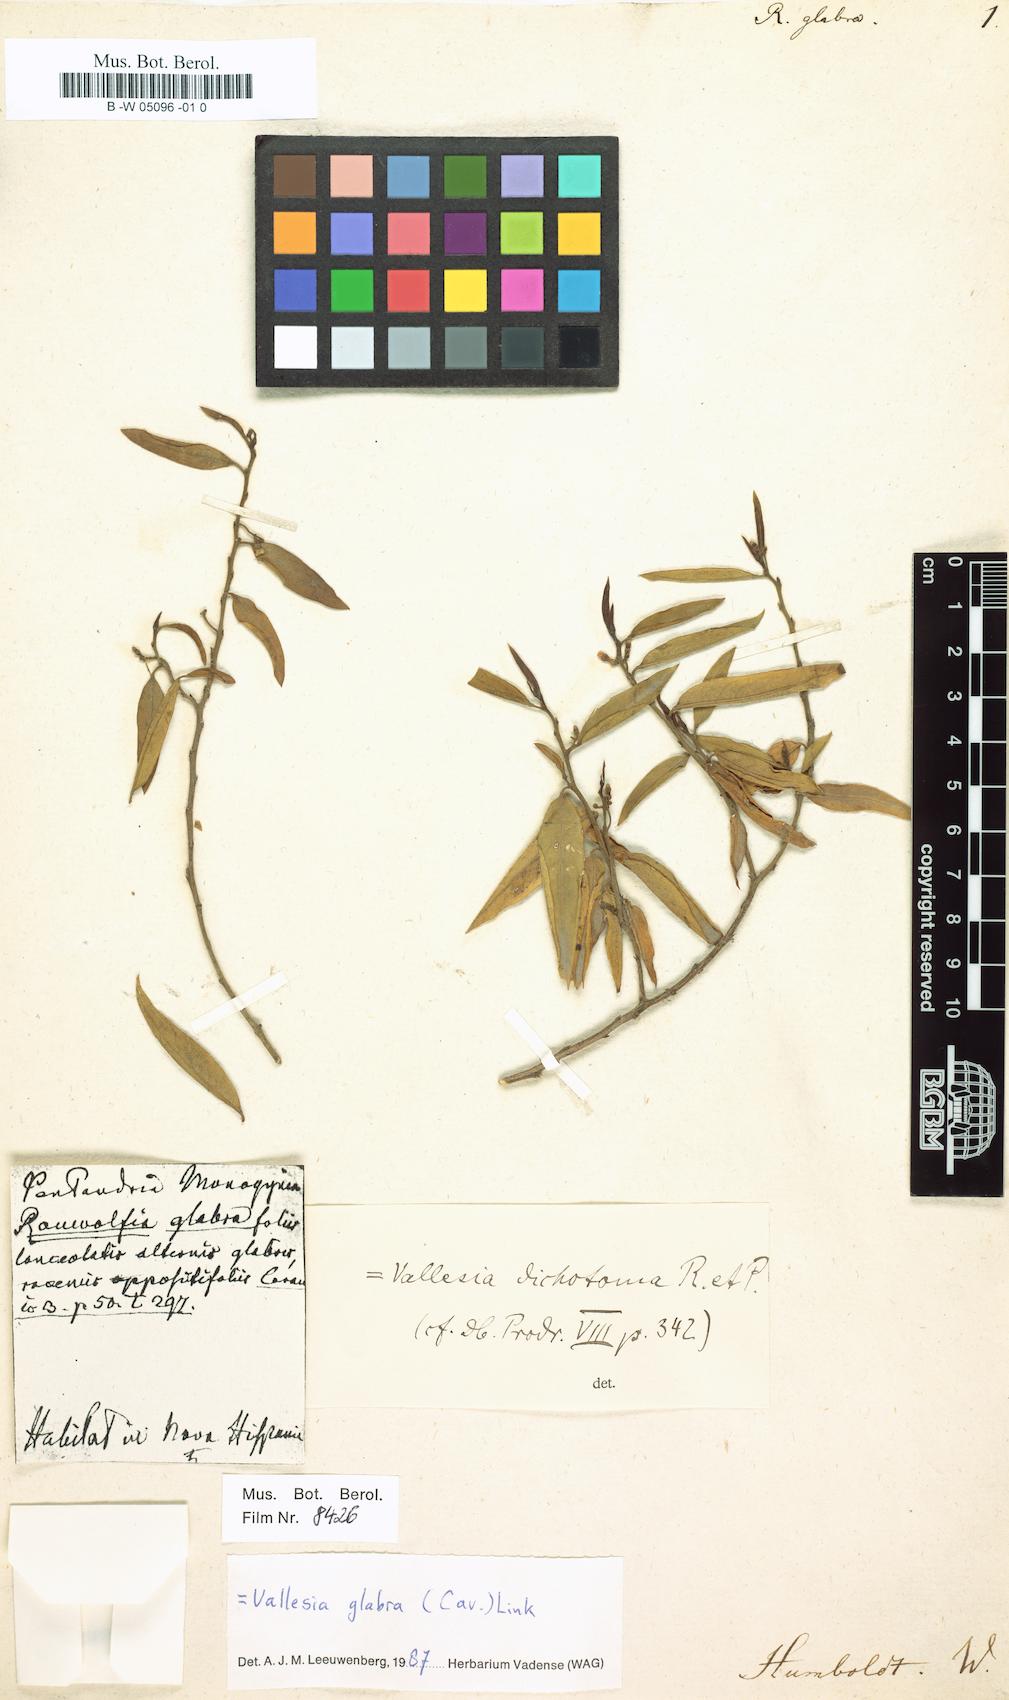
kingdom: Plantae
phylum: Tracheophyta
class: Magnoliopsida
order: Gentianales
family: Apocynaceae
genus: Vallesia
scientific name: Vallesia glabra
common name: Pearlberry
